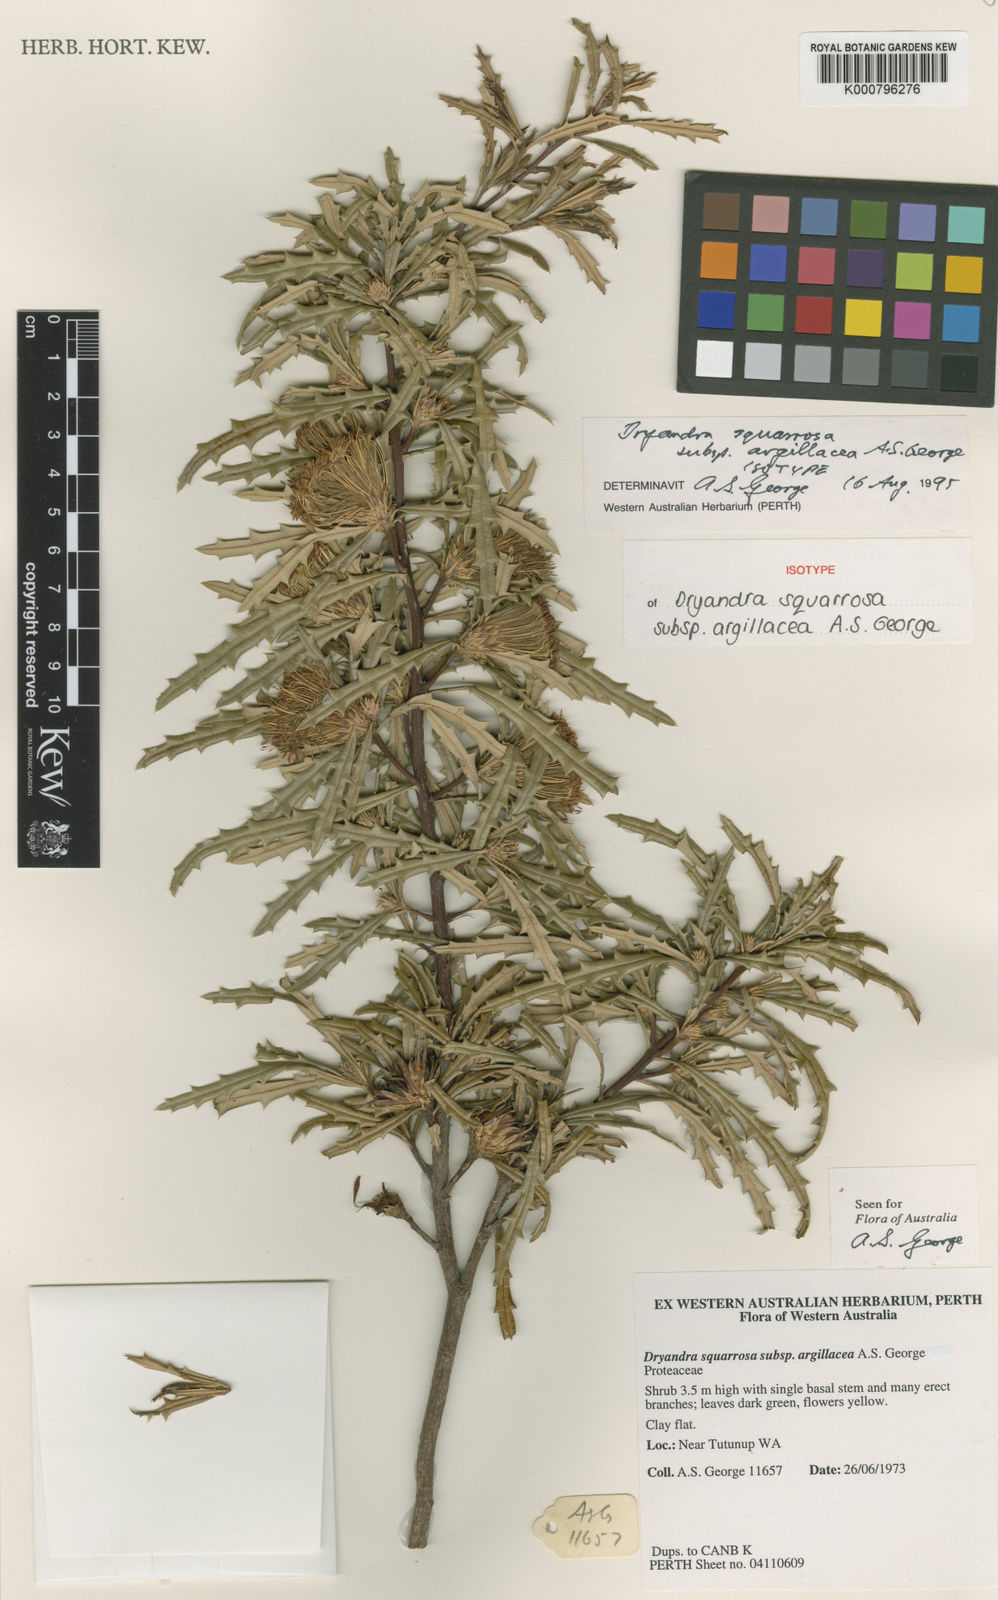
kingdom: Plantae
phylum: Tracheophyta
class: Magnoliopsida
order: Proteales
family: Proteaceae
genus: Banksia
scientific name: Banksia squarrosa
